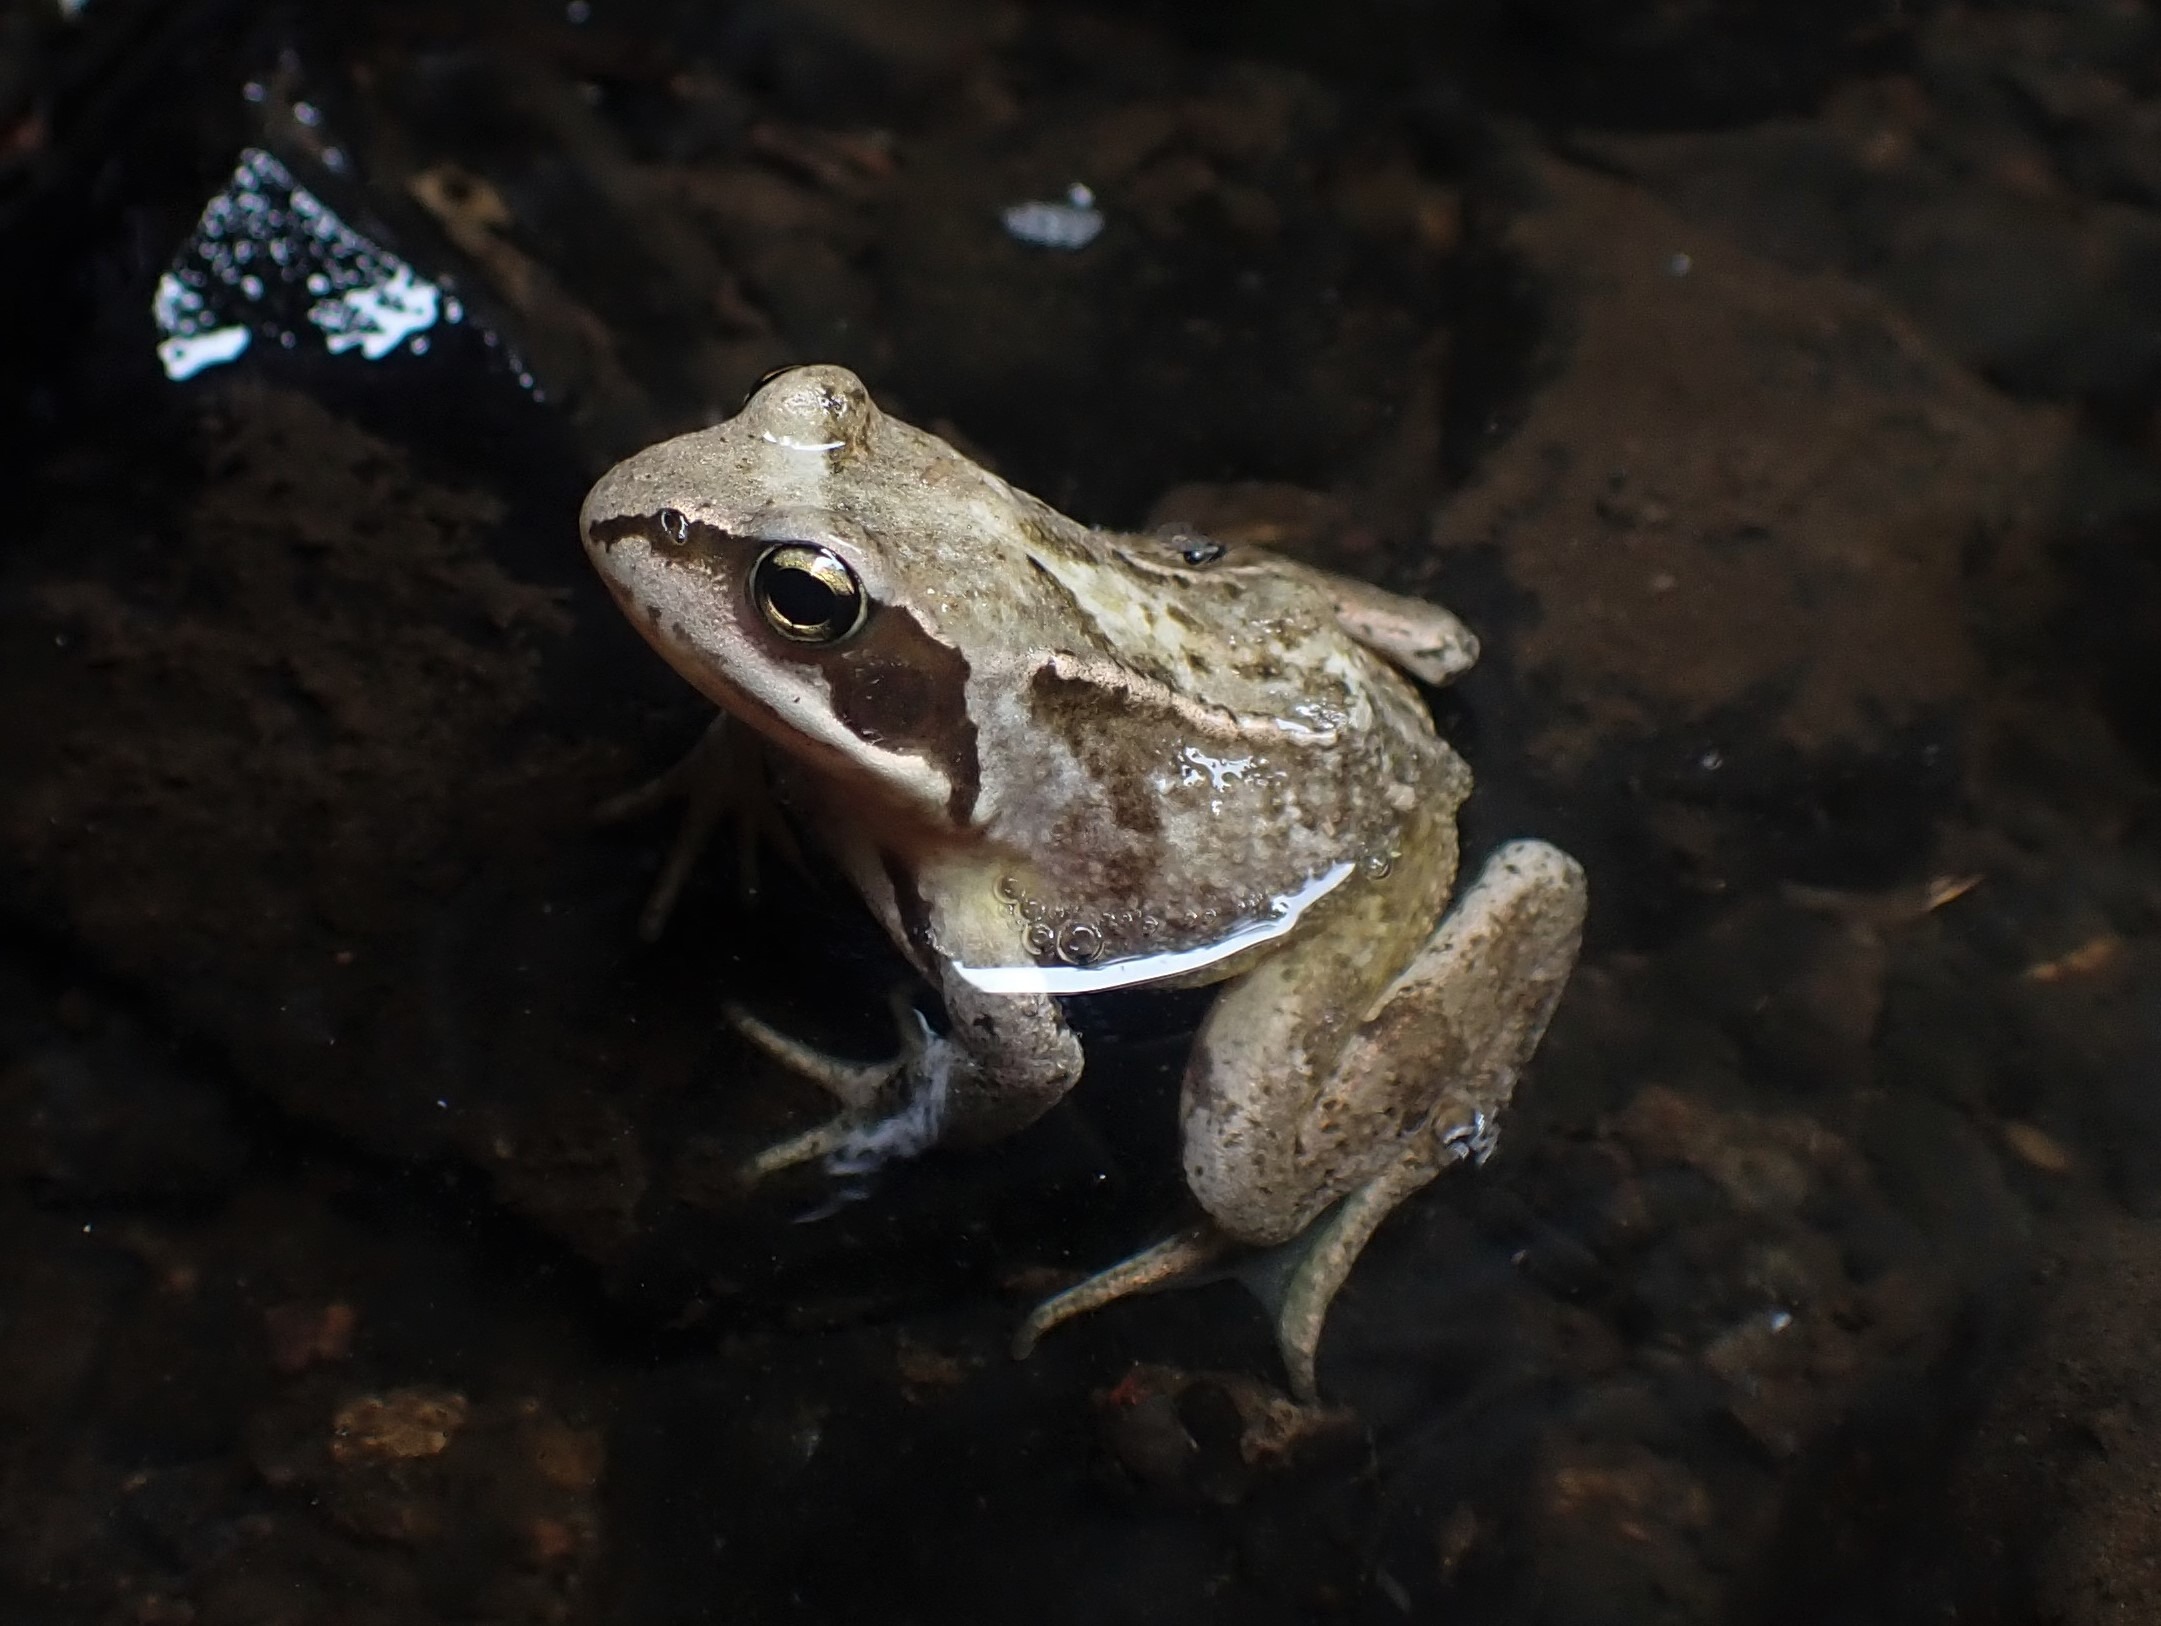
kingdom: Animalia
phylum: Chordata
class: Amphibia
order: Anura
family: Ranidae
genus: Rana
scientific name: Rana temporaria
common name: Butsnudet frø
